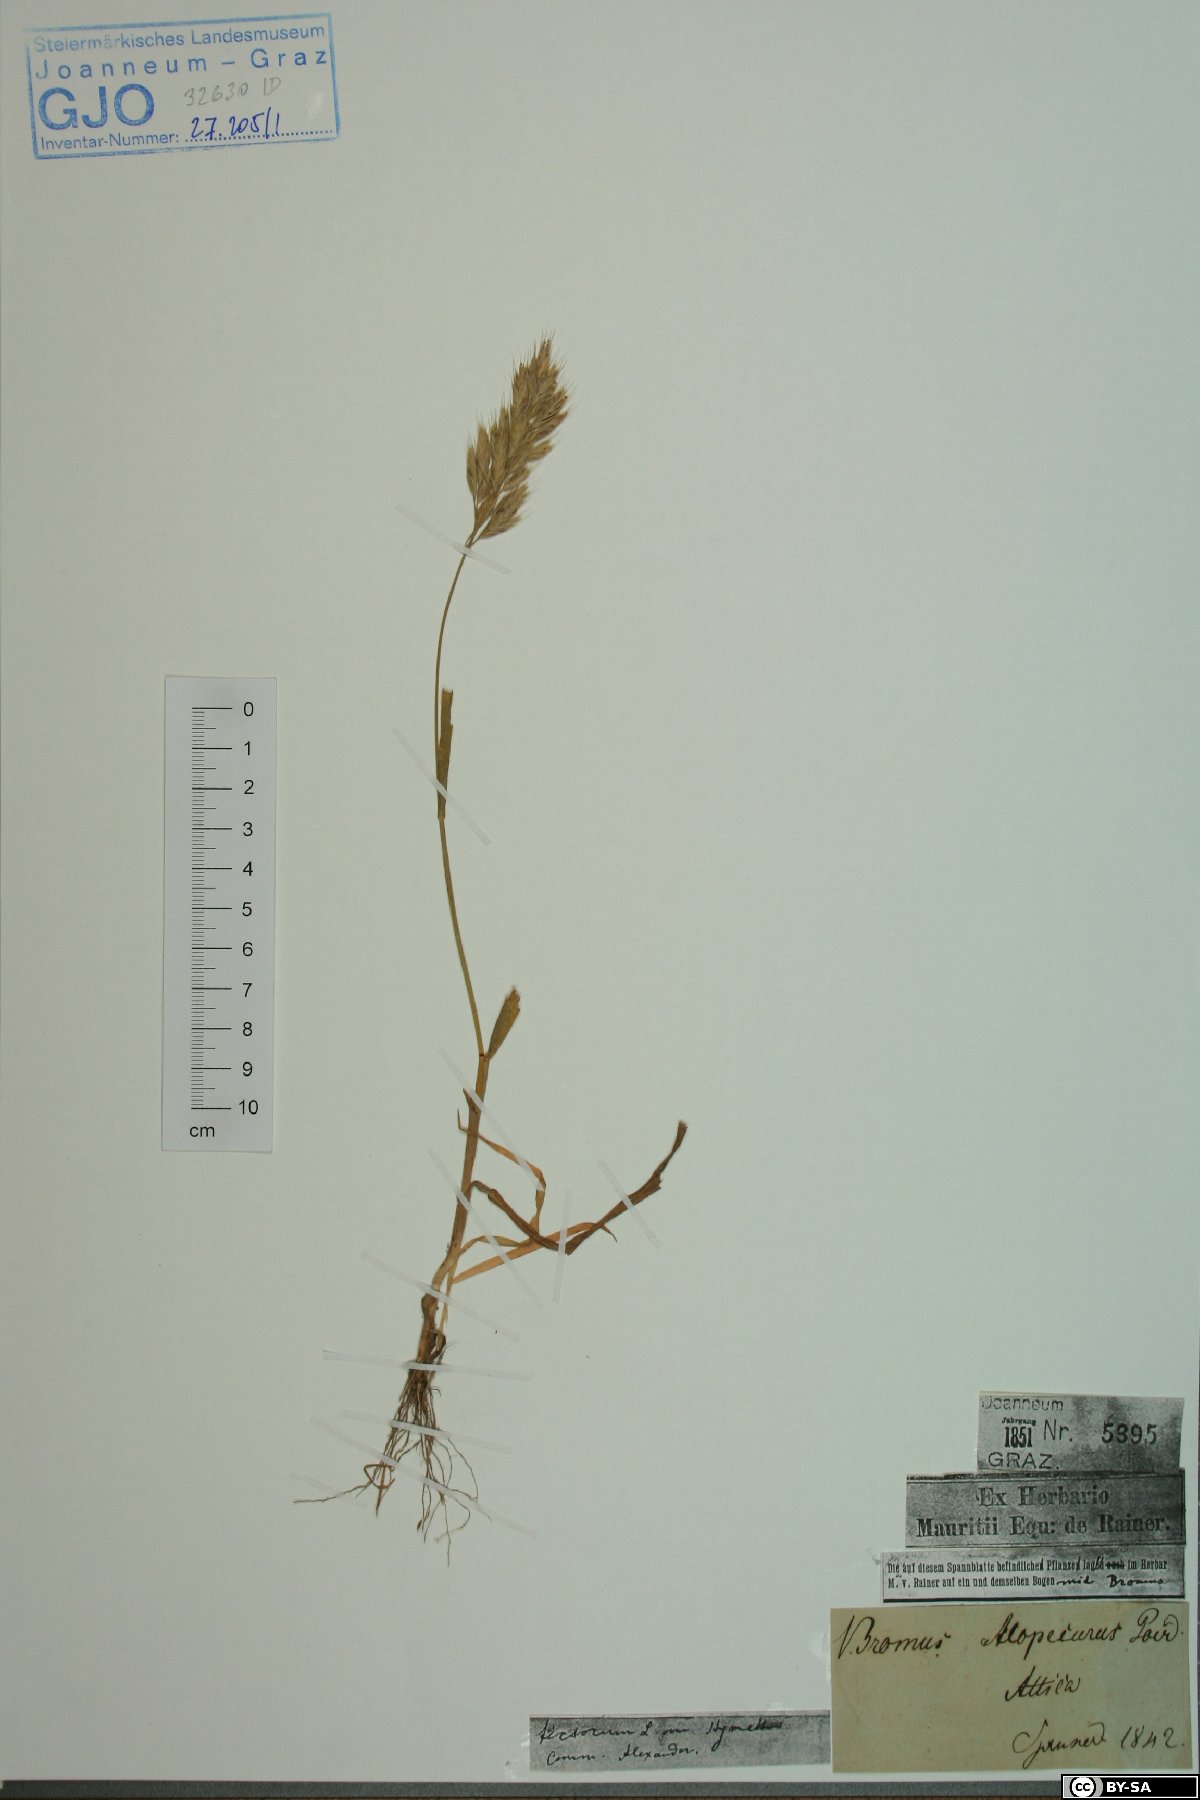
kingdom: Plantae
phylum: Tracheophyta
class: Liliopsida
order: Poales
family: Poaceae
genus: Bromus
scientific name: Bromus alopecuros
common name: Weedy brome
